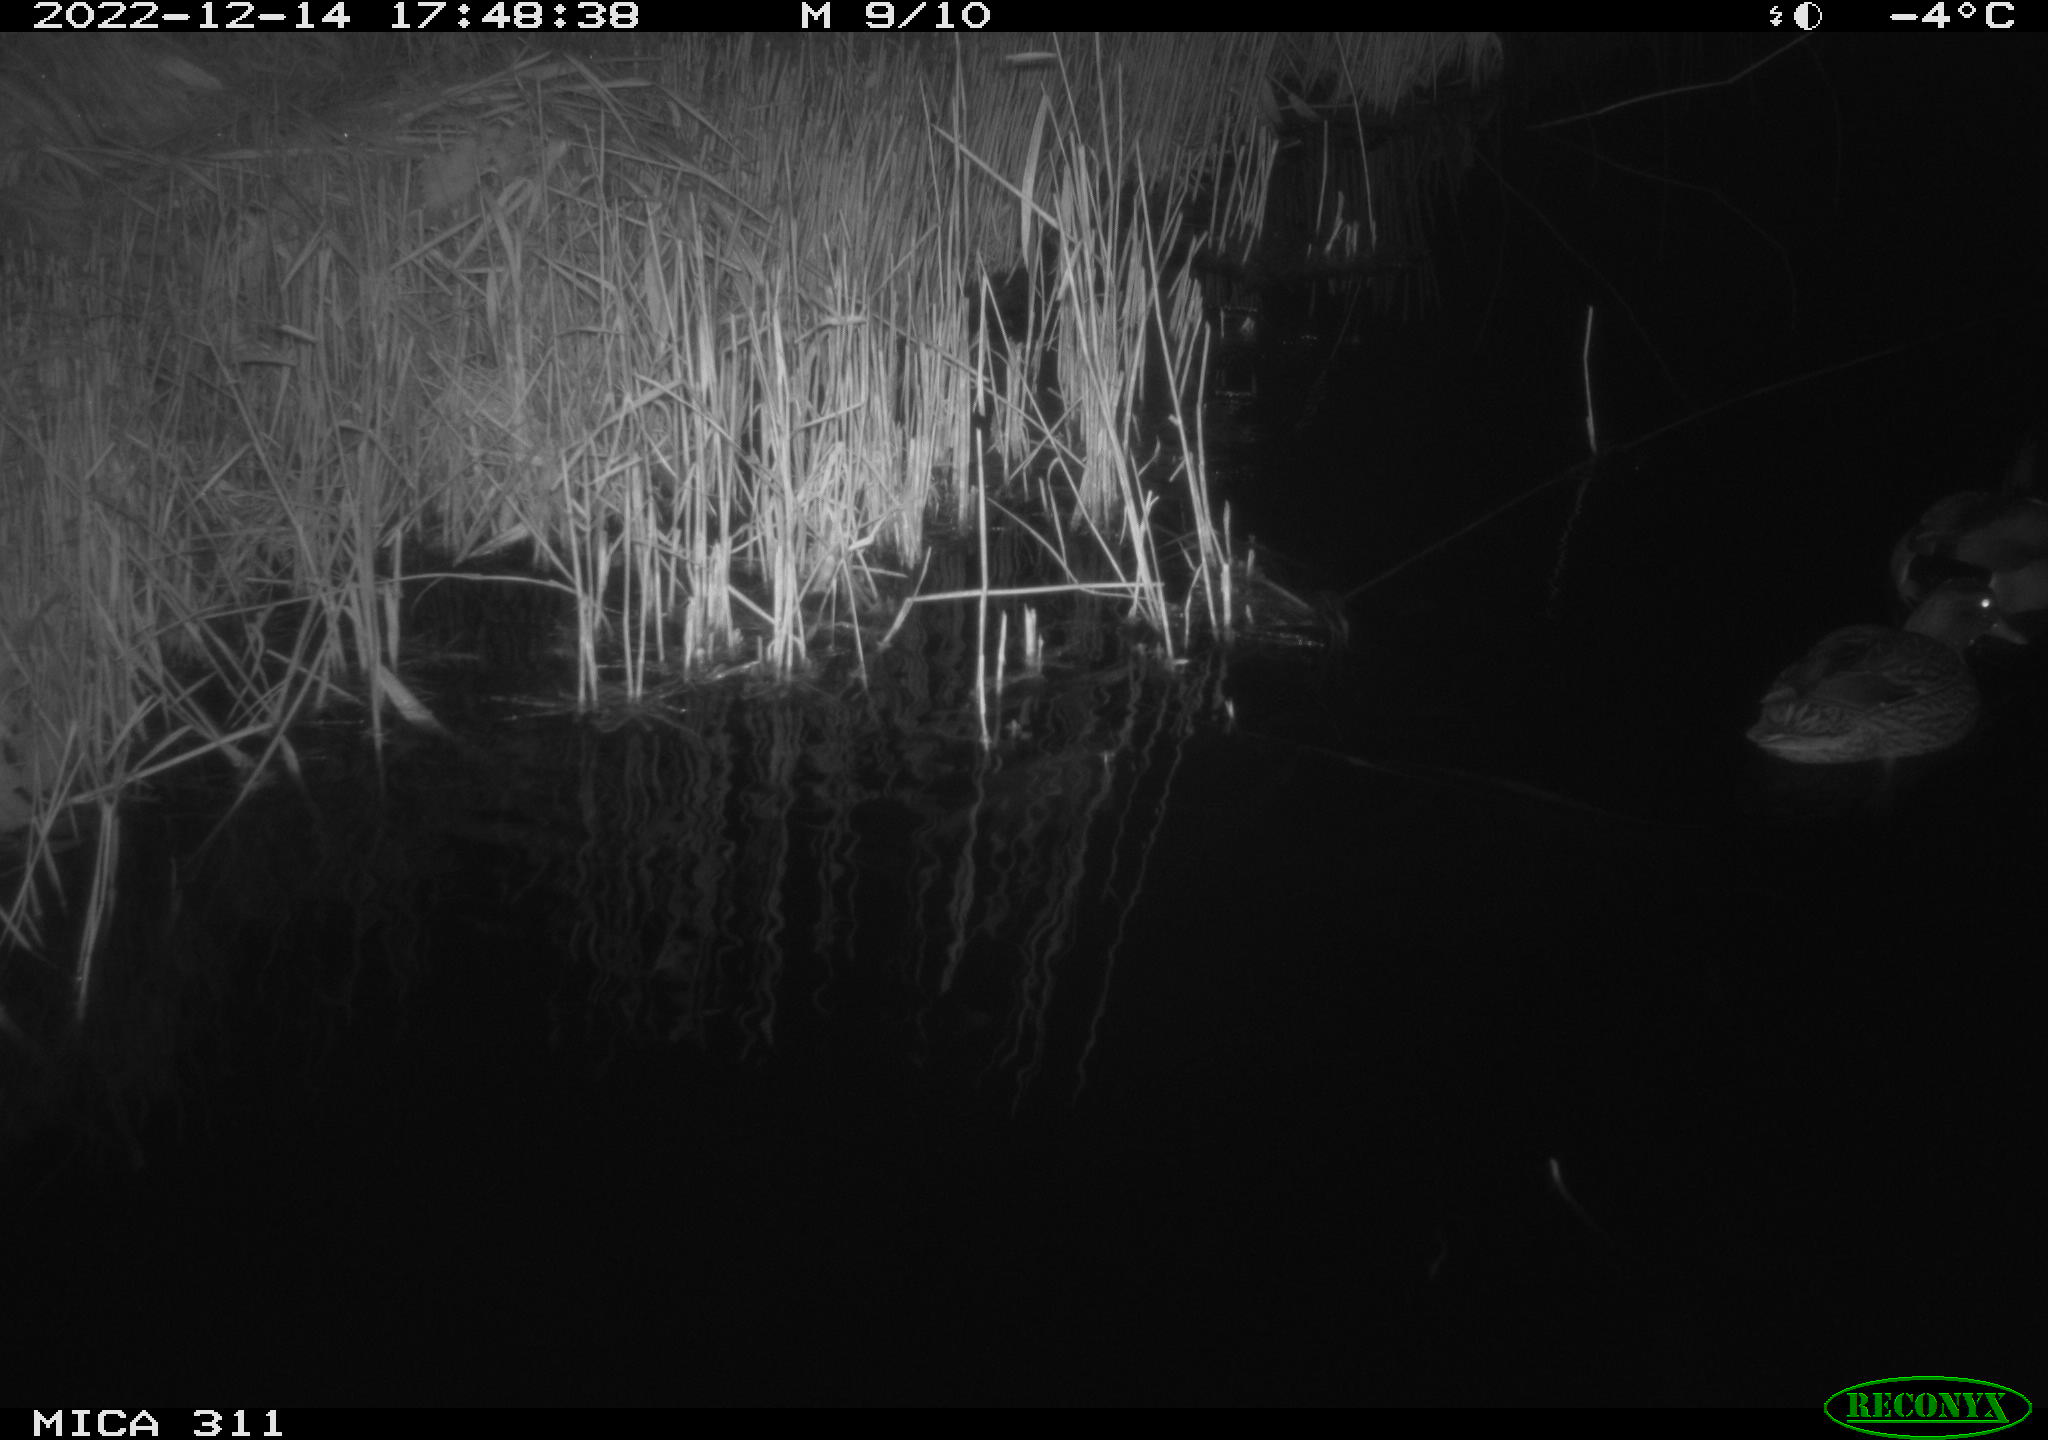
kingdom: Animalia
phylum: Chordata
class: Aves
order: Anseriformes
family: Anatidae
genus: Anas
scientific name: Anas
